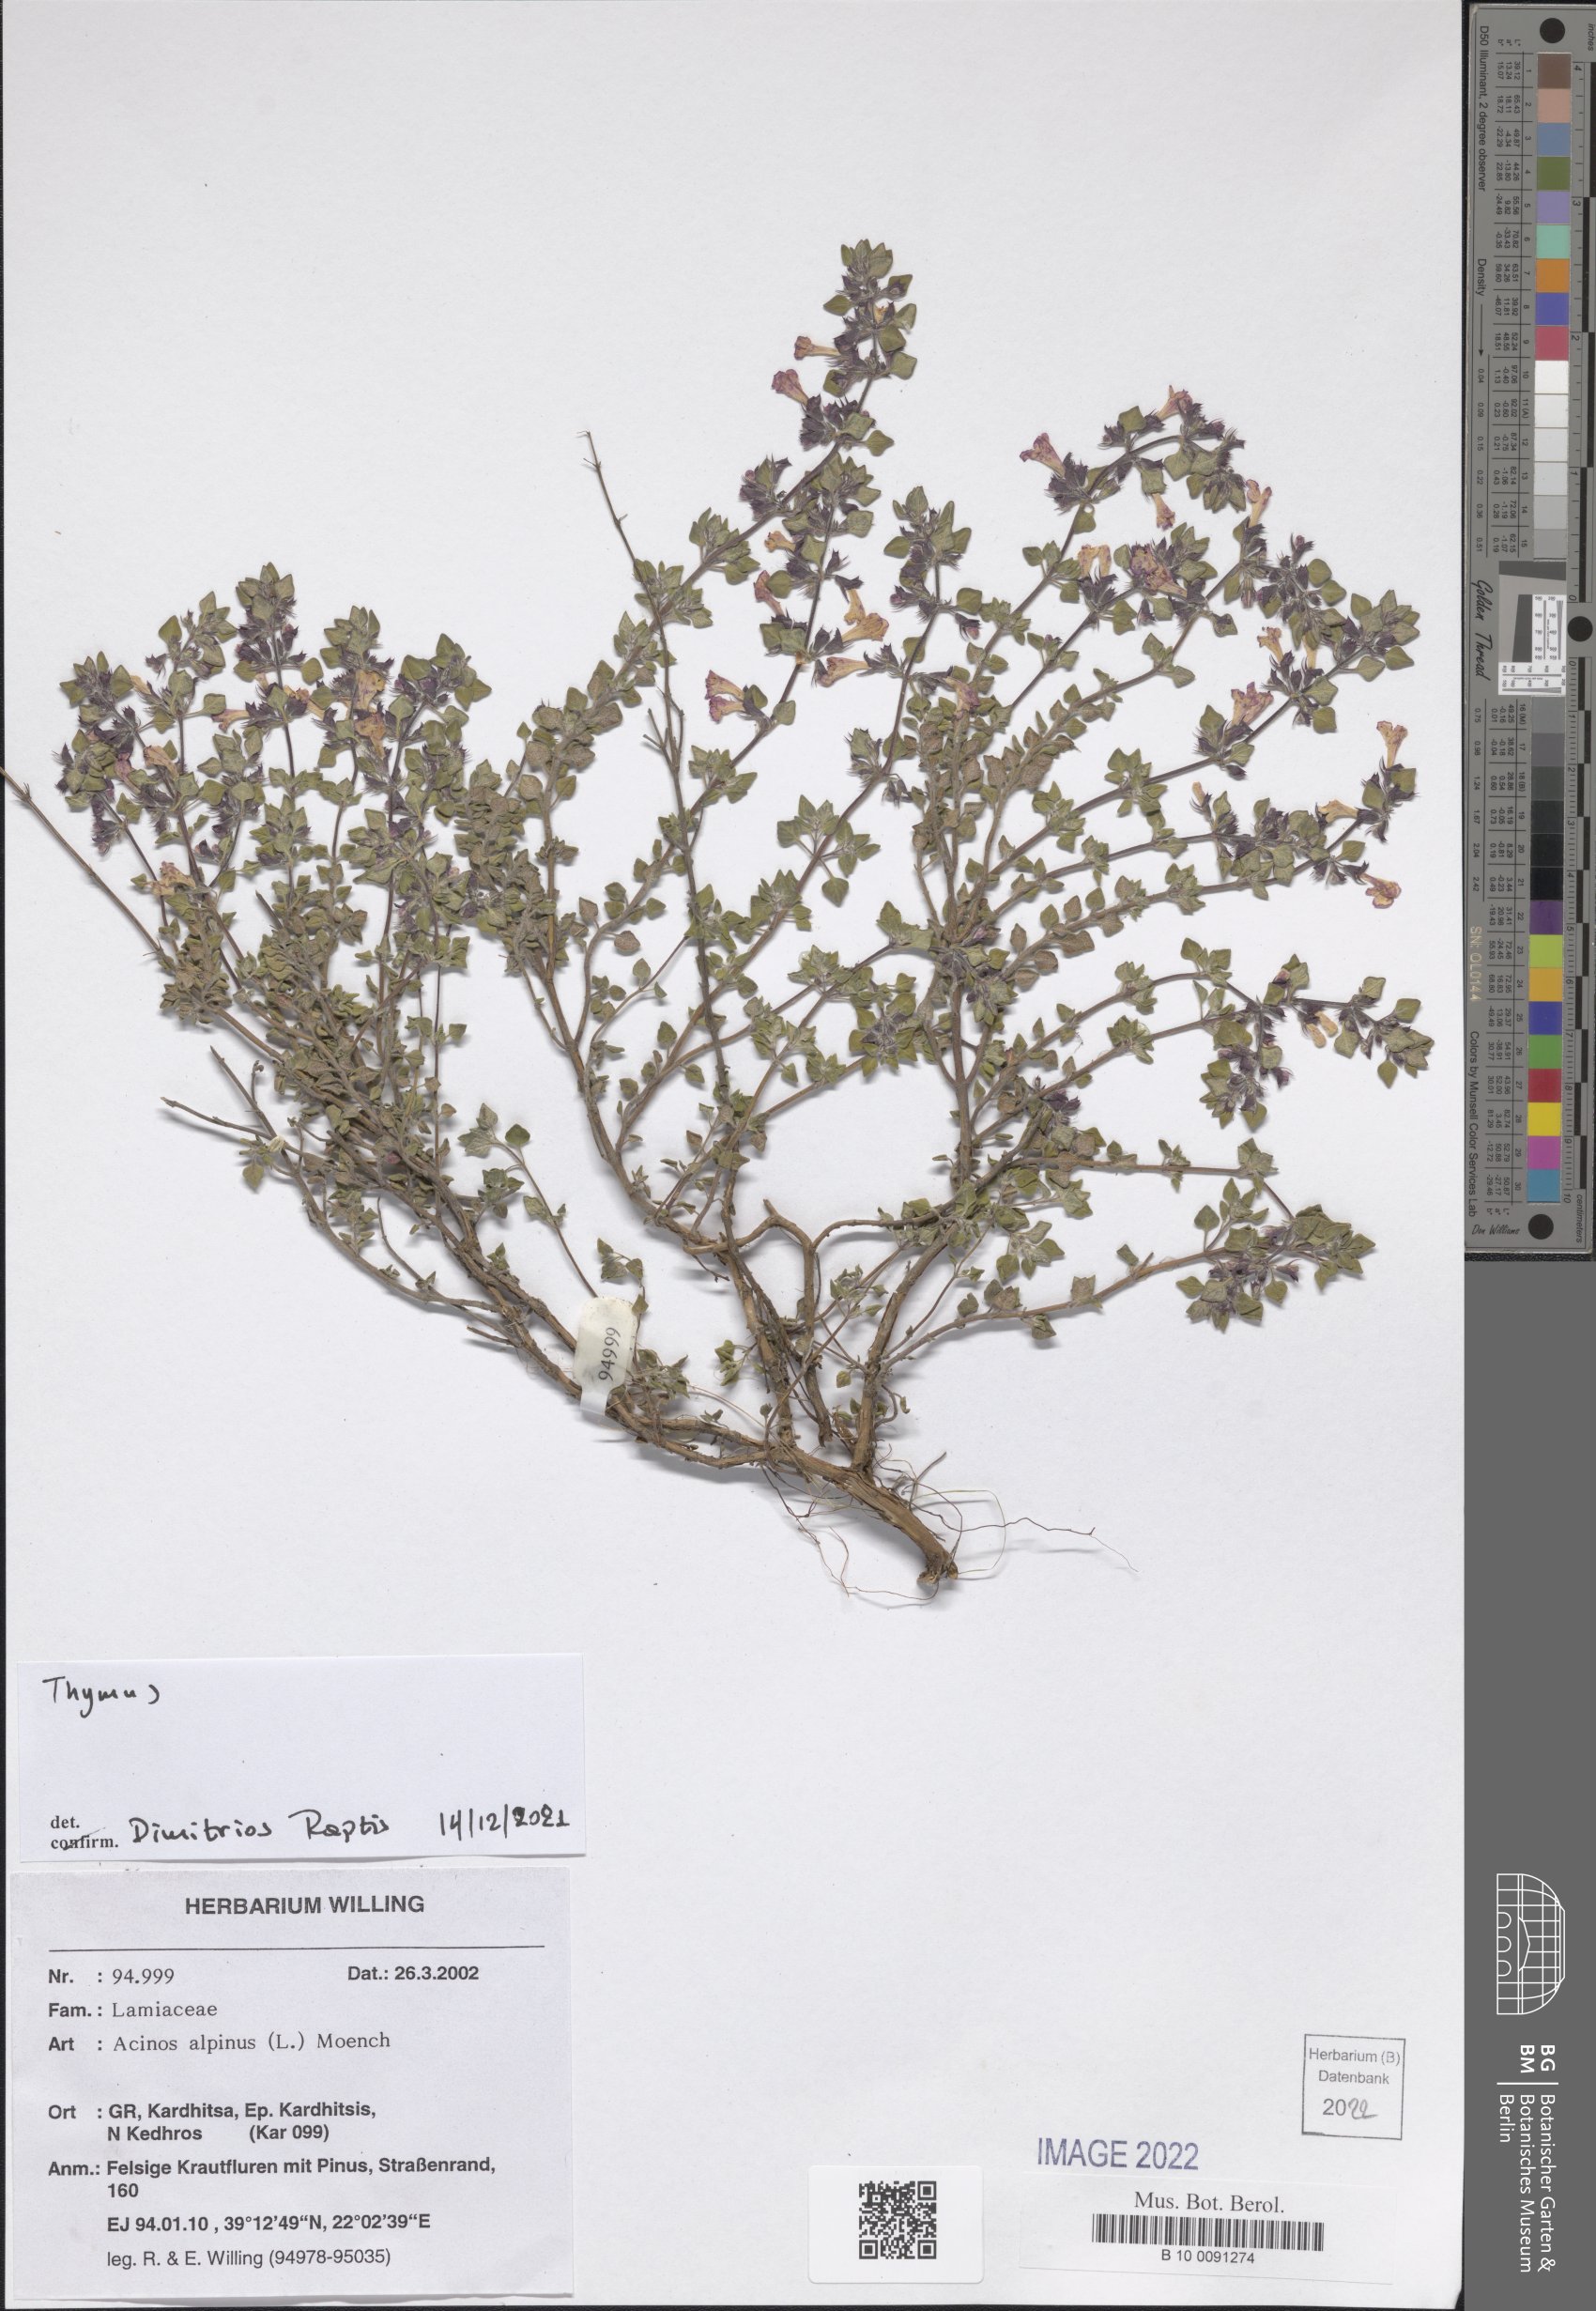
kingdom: Plantae
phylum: Tracheophyta
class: Magnoliopsida
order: Lamiales
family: Lamiaceae
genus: Thymus
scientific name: Thymus
